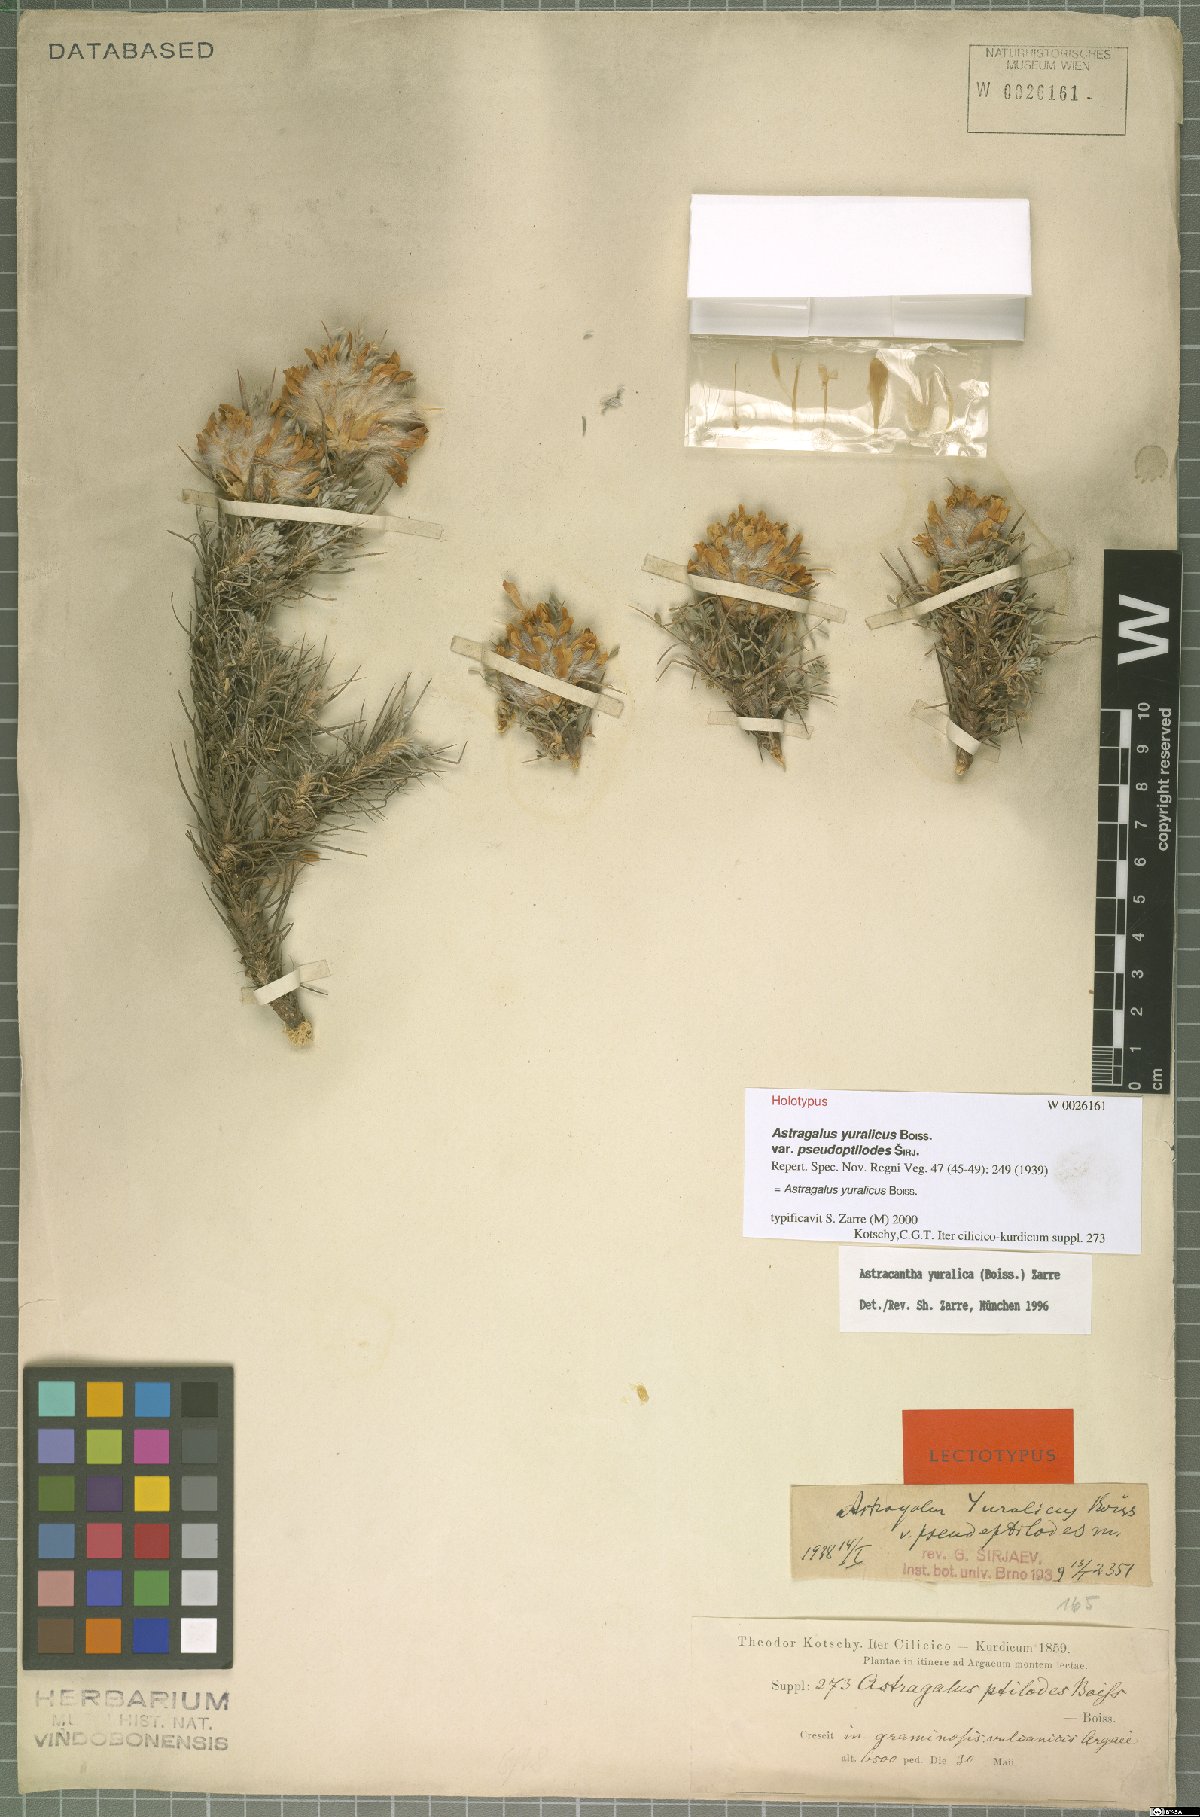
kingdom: Plantae
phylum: Tracheophyta
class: Magnoliopsida
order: Fabales
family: Fabaceae
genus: Astragalus
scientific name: Astragalus yuralicus
